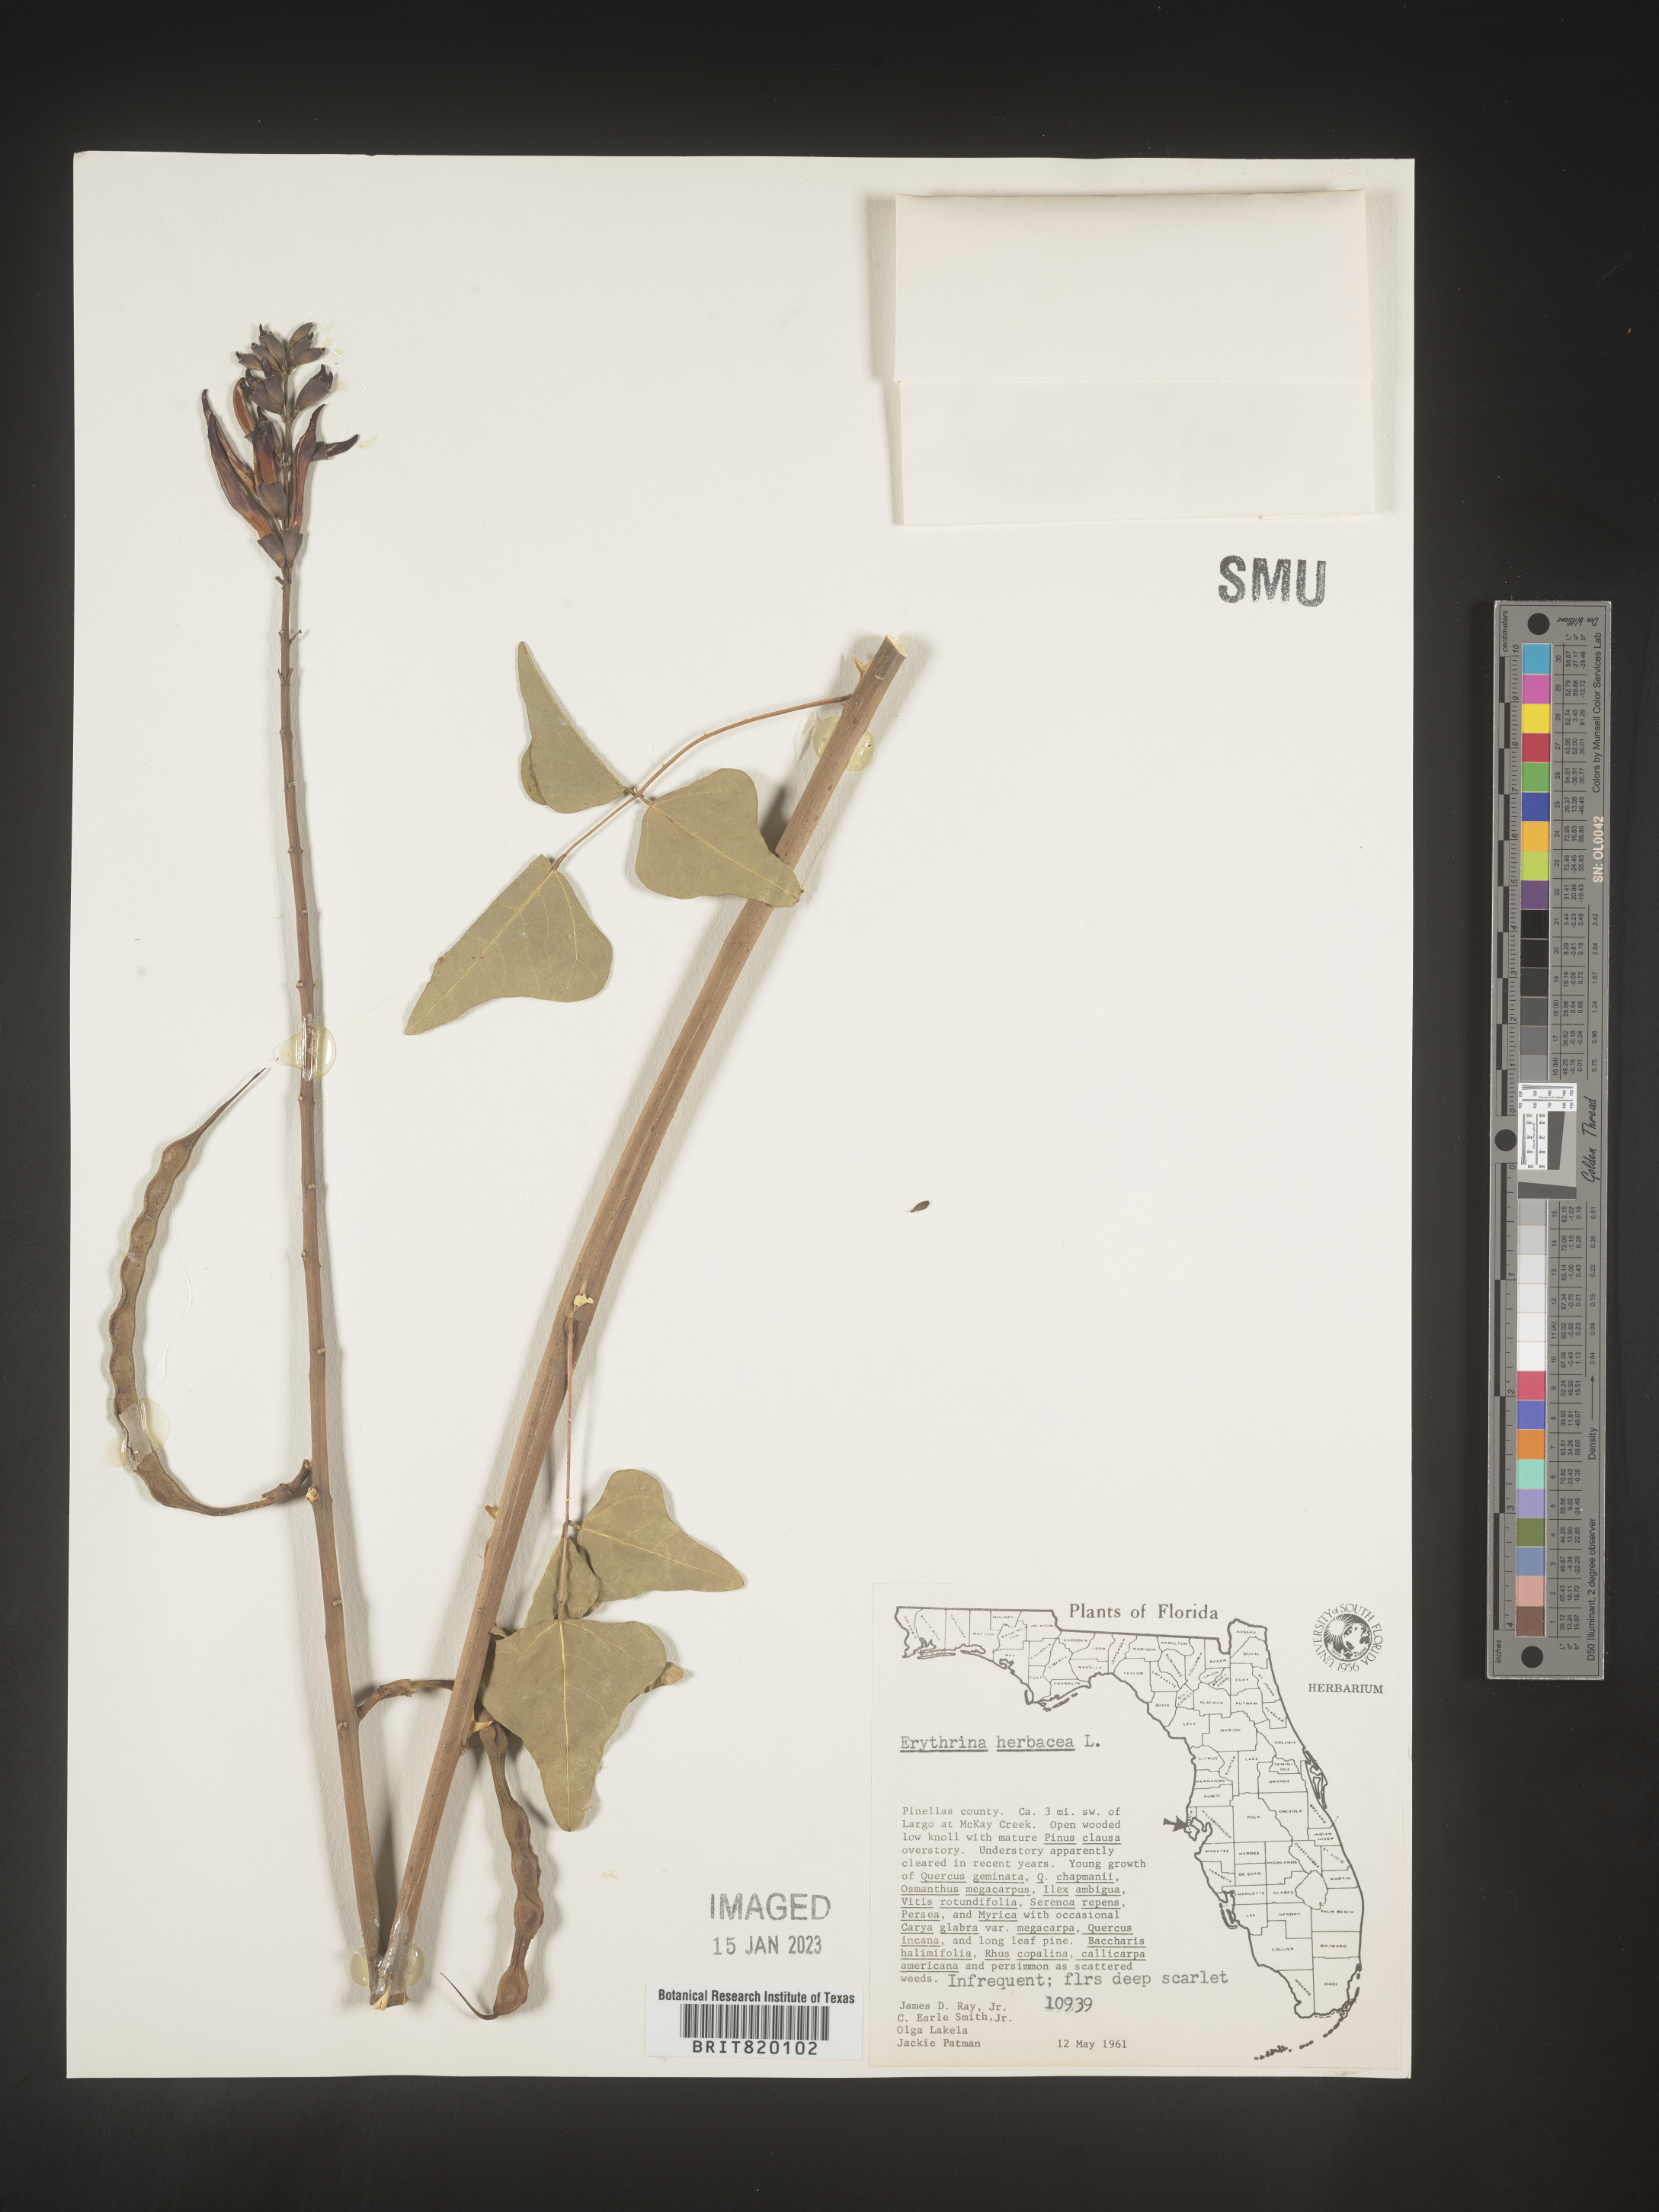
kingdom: Plantae
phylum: Tracheophyta
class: Magnoliopsida
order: Fabales
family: Fabaceae
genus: Erythrina
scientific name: Erythrina herbacea
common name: Coral-bean
